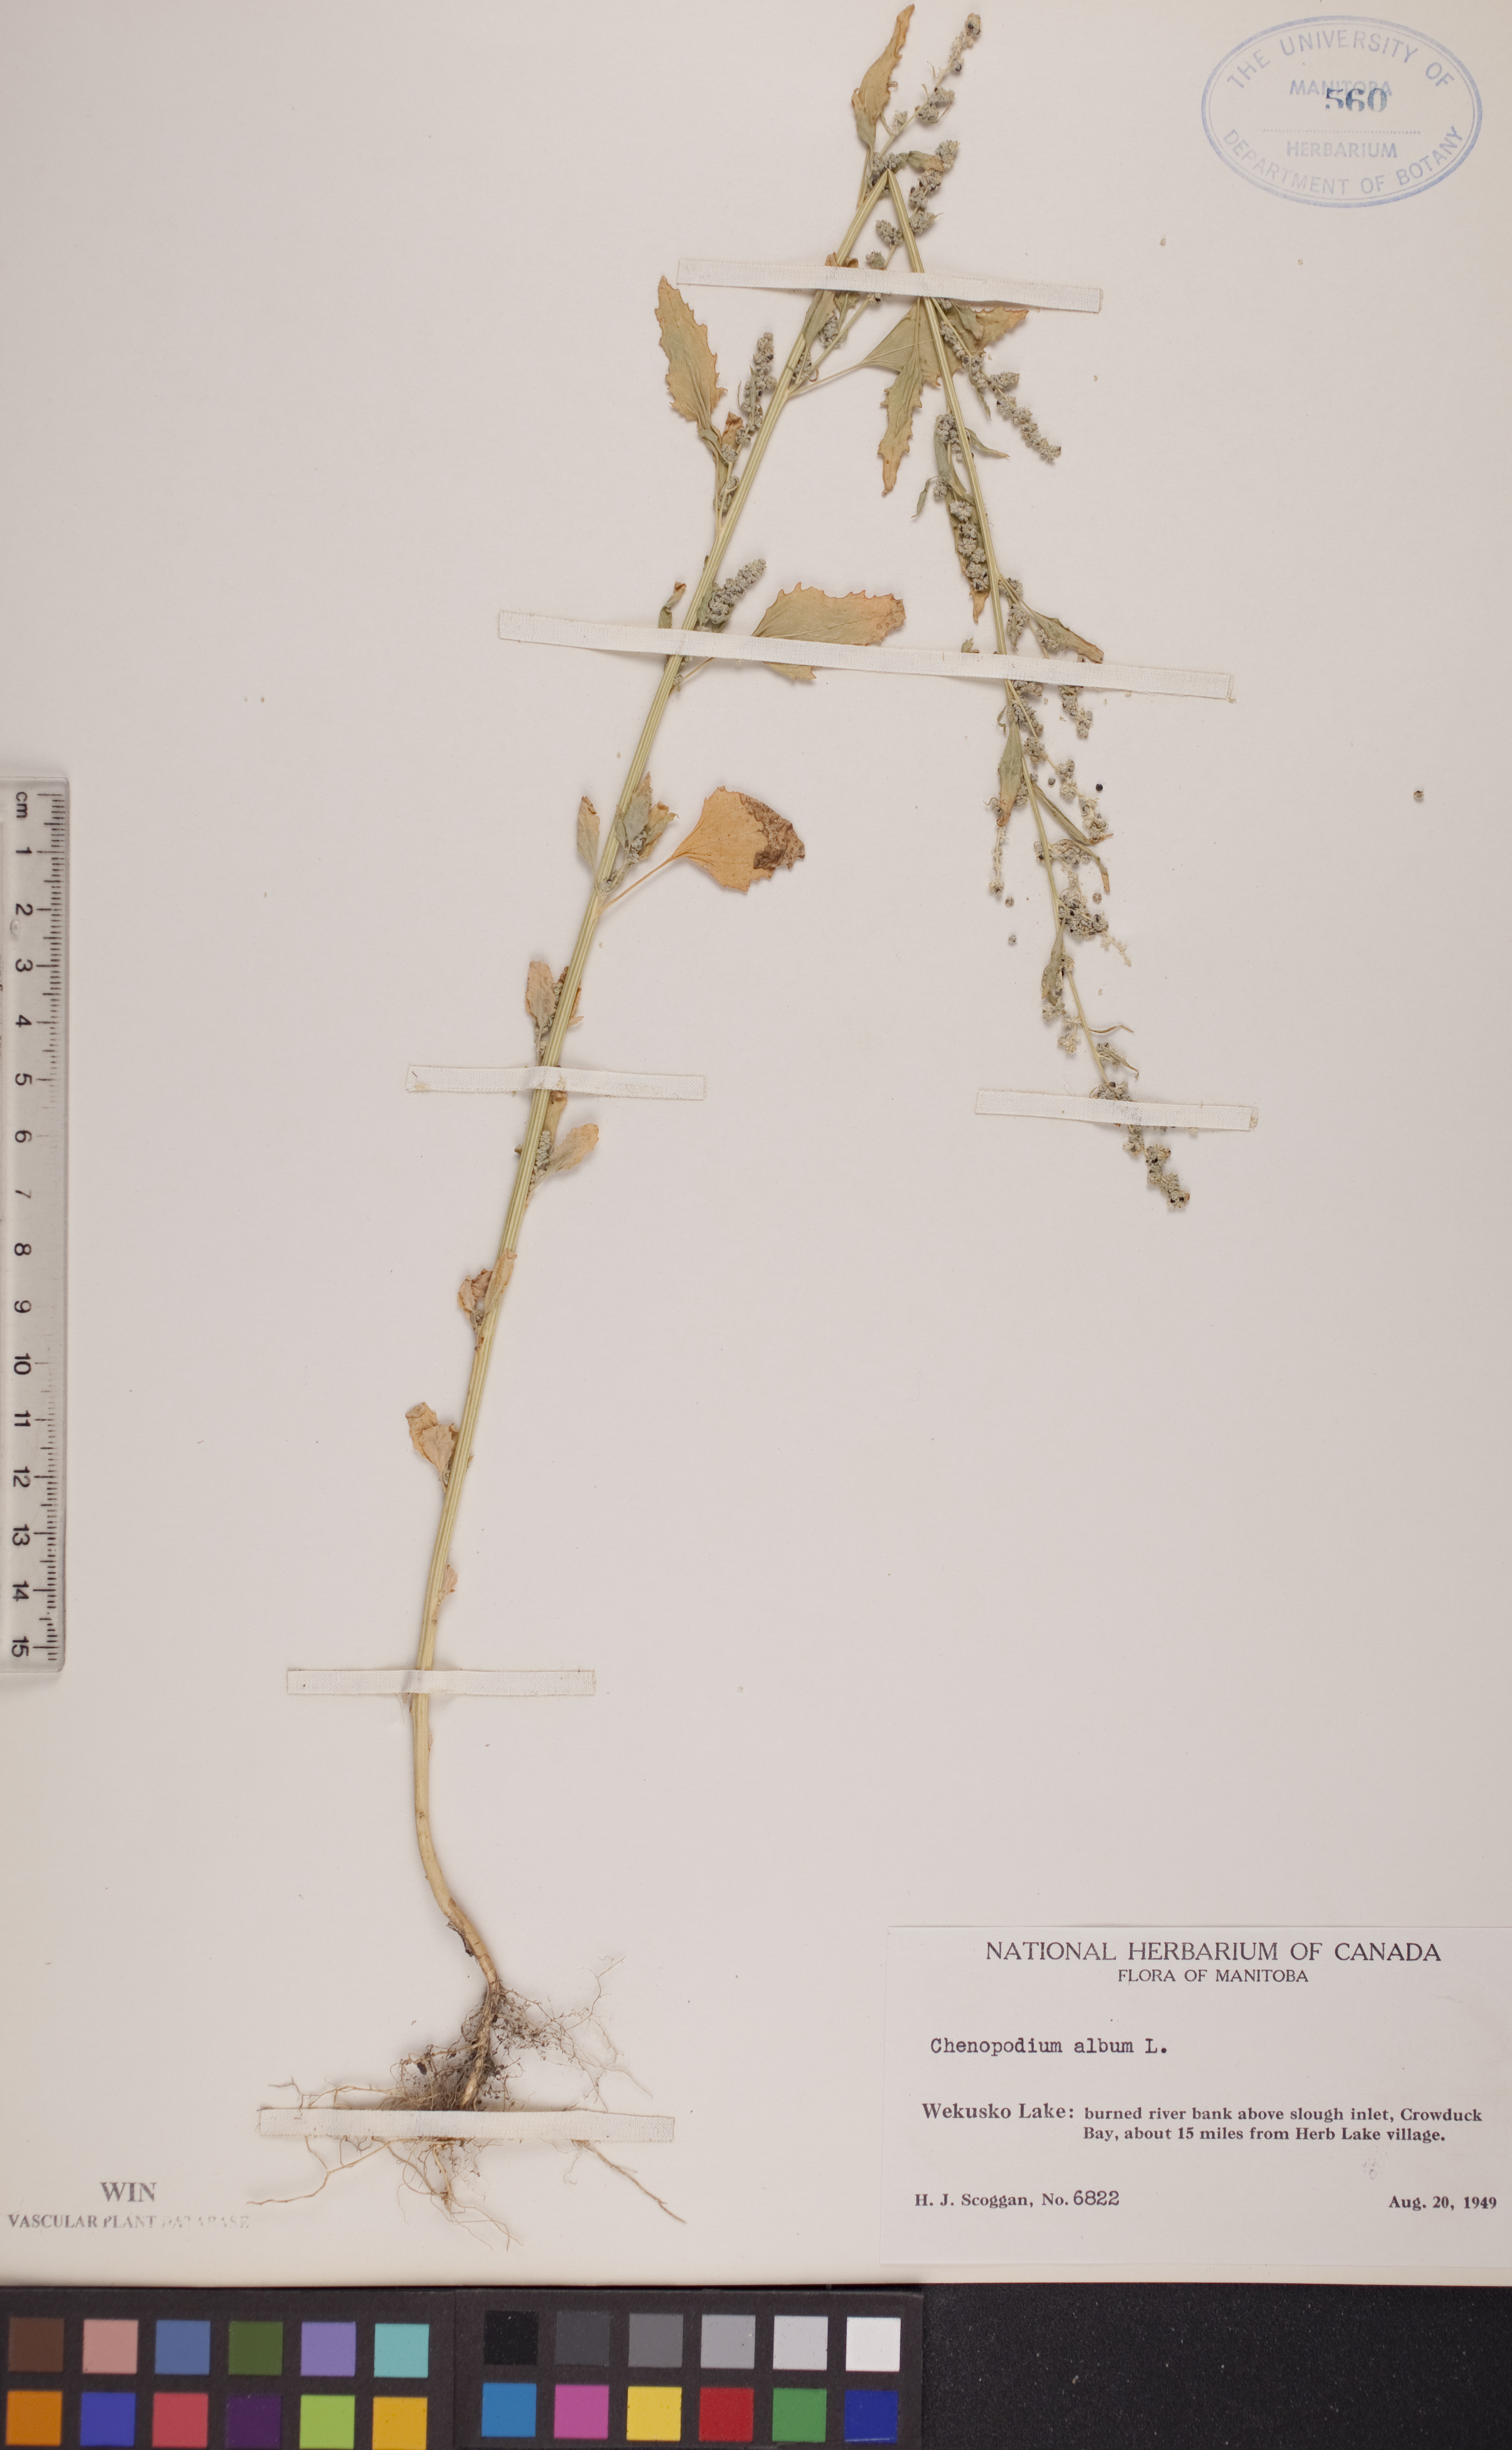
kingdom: Plantae
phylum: Tracheophyta
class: Magnoliopsida
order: Caryophyllales
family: Amaranthaceae
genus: Chenopodium
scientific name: Chenopodium album
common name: Fat-hen
